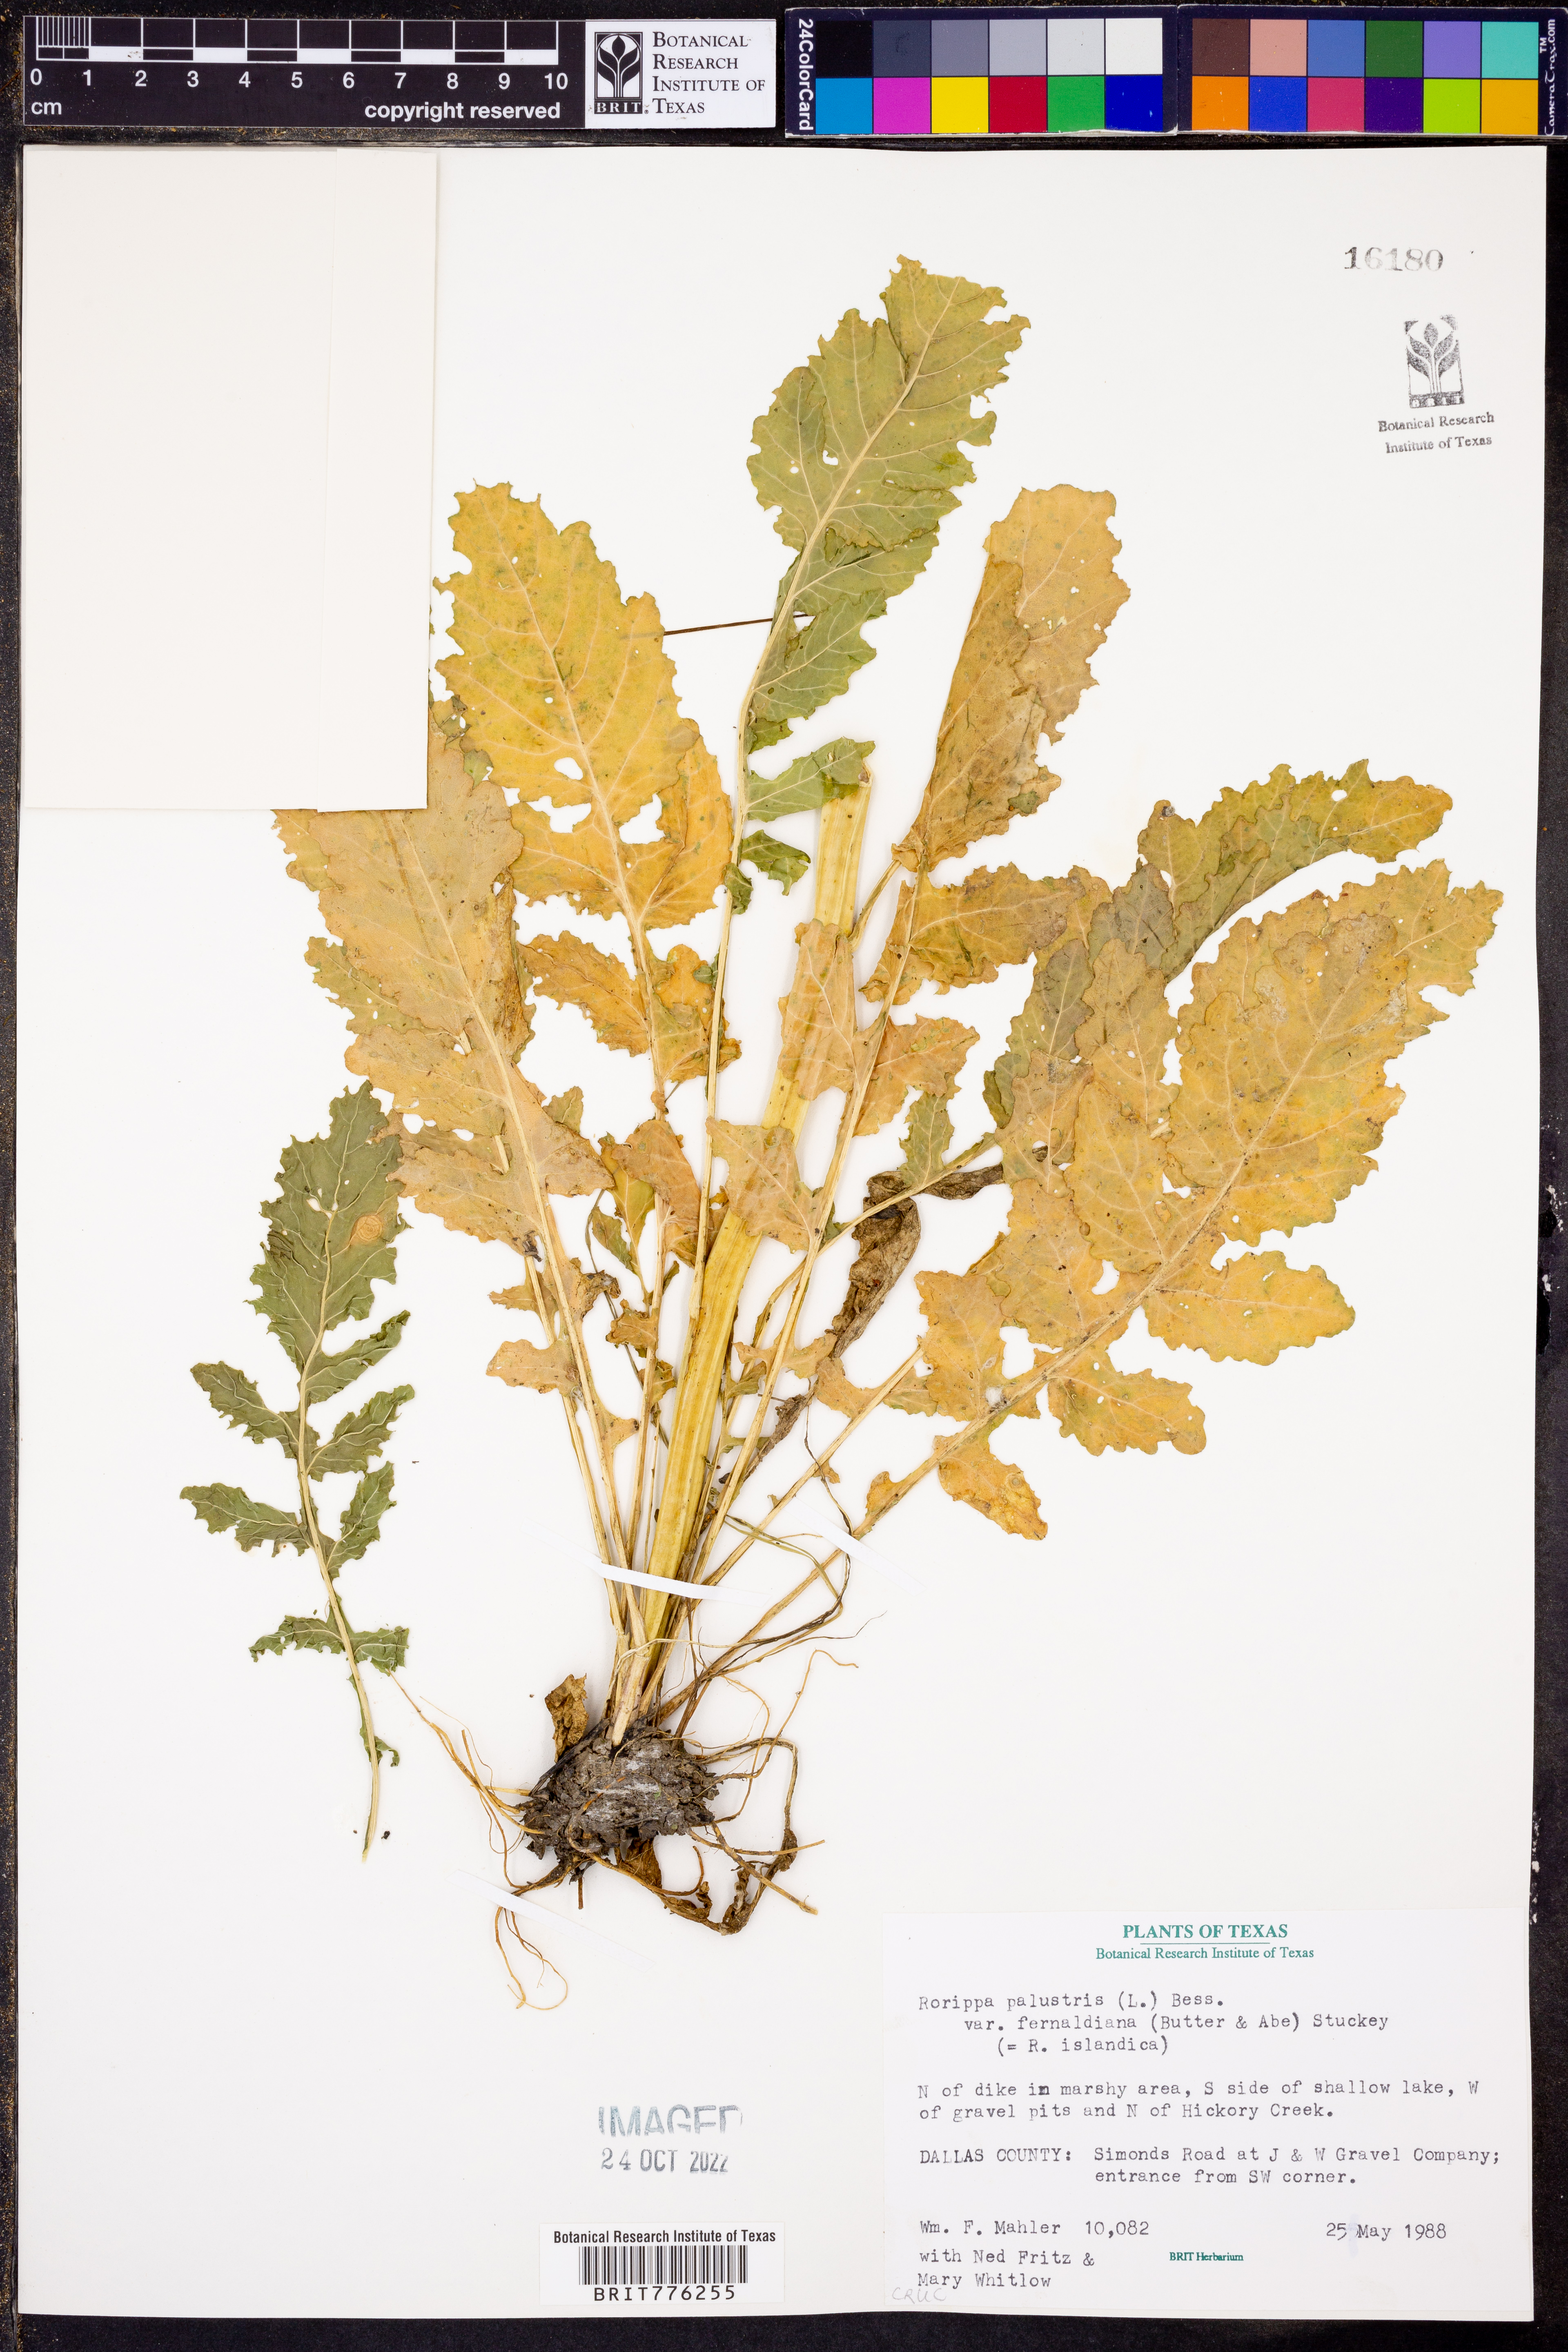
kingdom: Plantae
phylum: Tracheophyta
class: Magnoliopsida
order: Brassicales
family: Brassicaceae
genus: Rorippa
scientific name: Rorippa palustris
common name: Marsh yellow-cress
